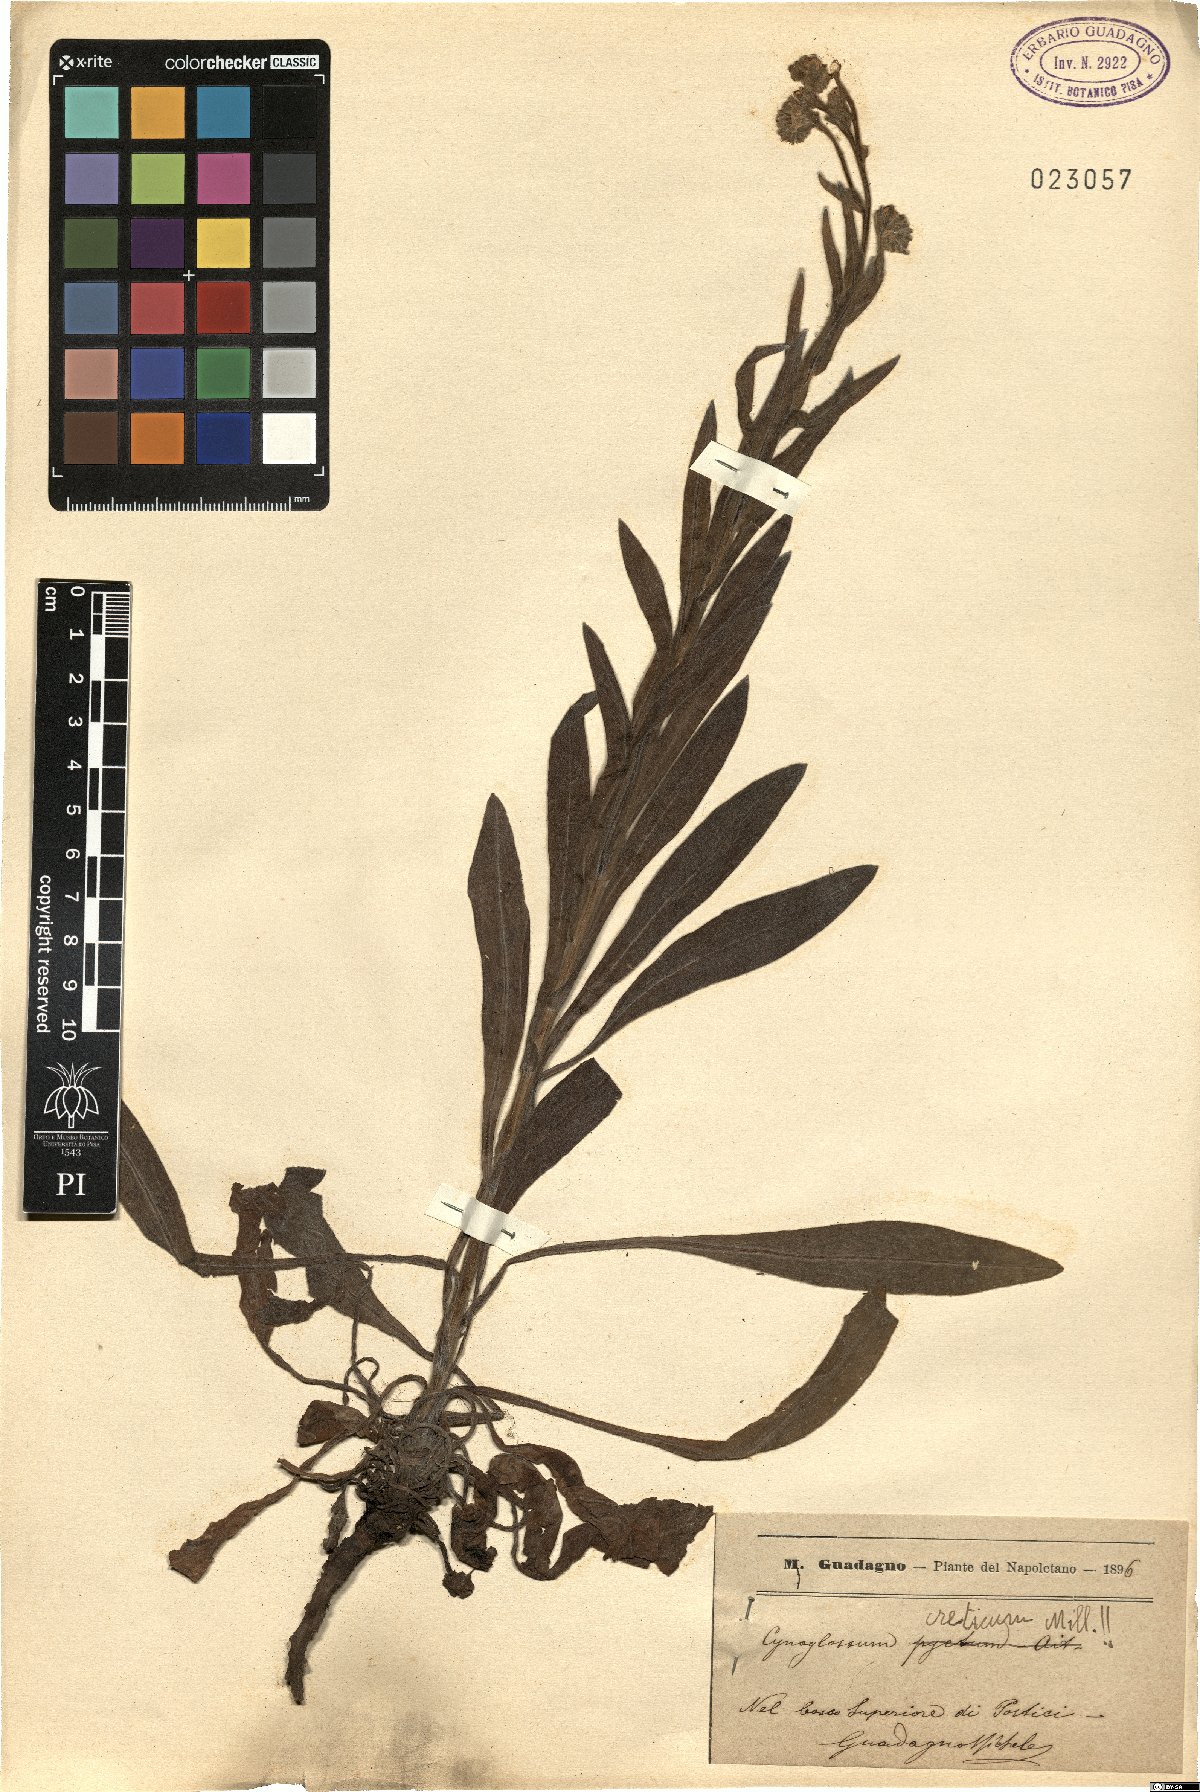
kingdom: Plantae
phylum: Tracheophyta
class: Magnoliopsida
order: Boraginales
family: Boraginaceae
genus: Cynoglossum
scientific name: Cynoglossum creticum
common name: Blue hound's tongue
